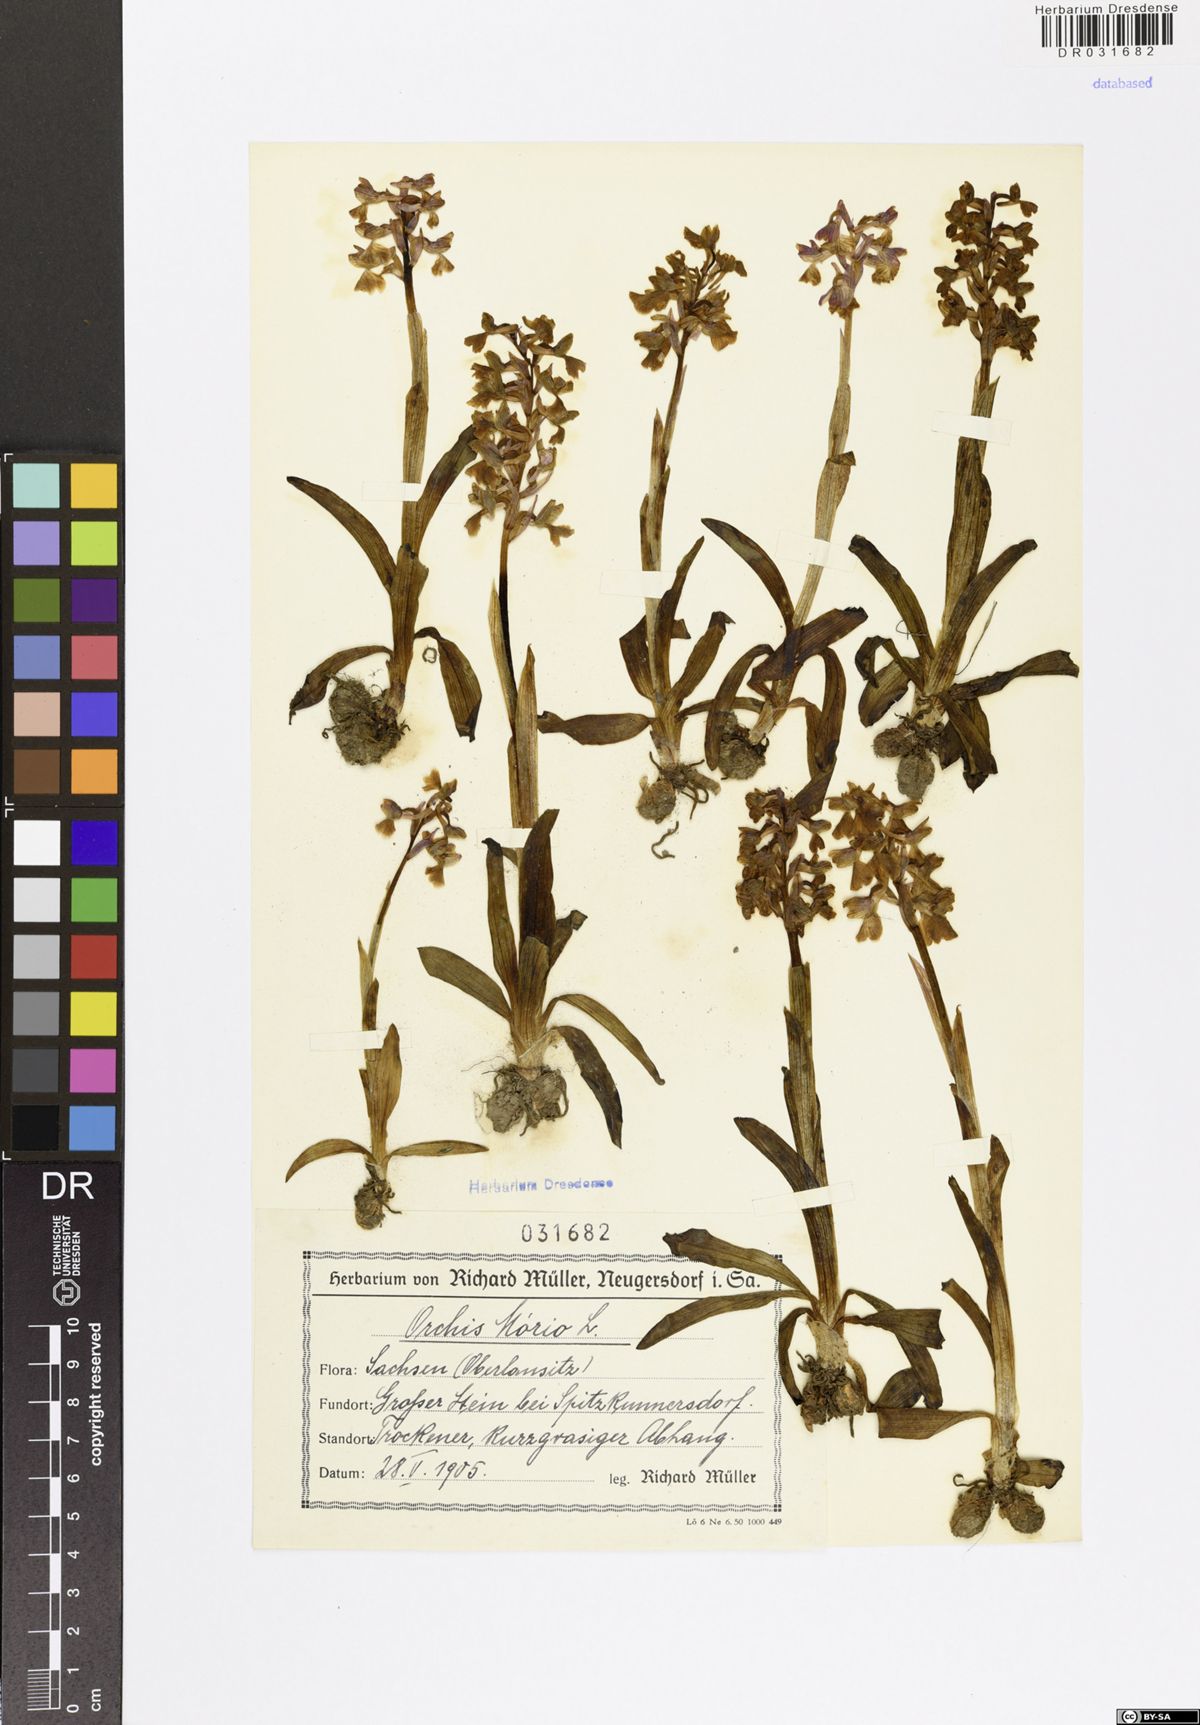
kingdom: Plantae
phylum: Tracheophyta
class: Liliopsida
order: Asparagales
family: Orchidaceae
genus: Anacamptis
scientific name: Anacamptis morio
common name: Green-winged orchid
